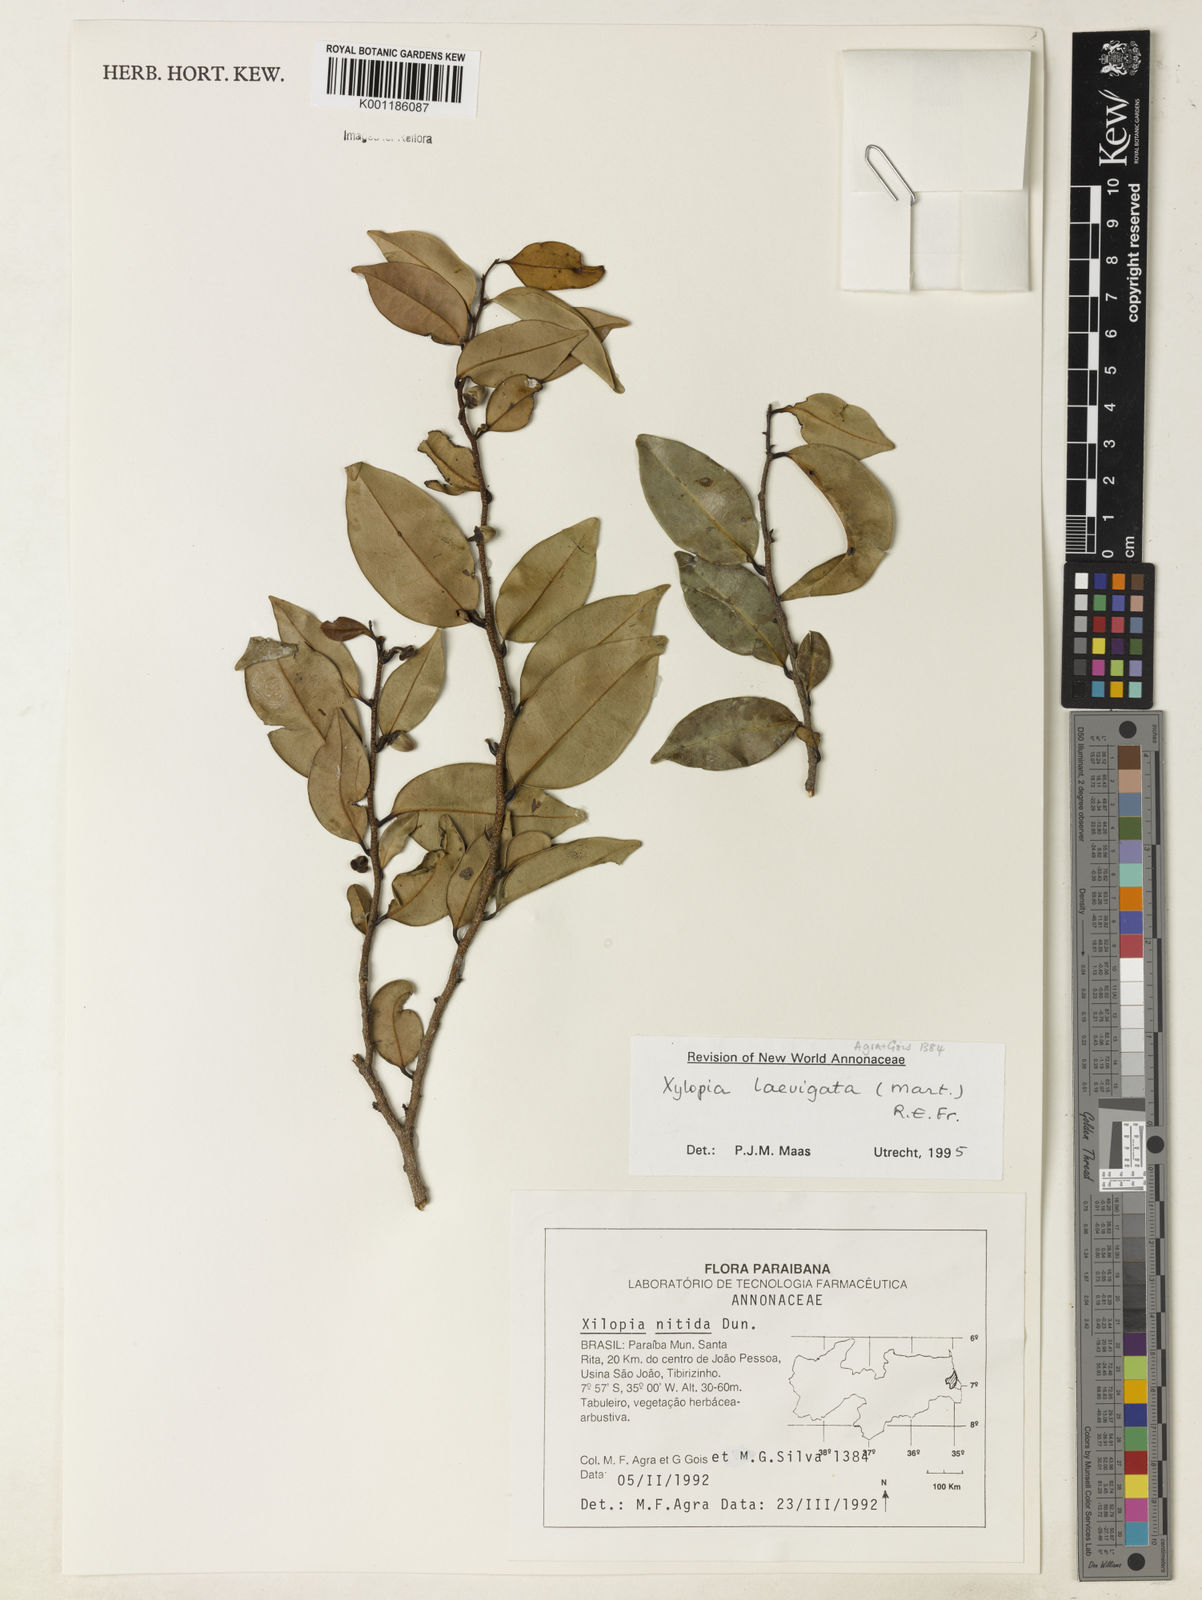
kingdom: Plantae
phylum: Tracheophyta
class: Magnoliopsida
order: Magnoliales
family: Annonaceae
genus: Xylopia
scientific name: Xylopia laevigata
